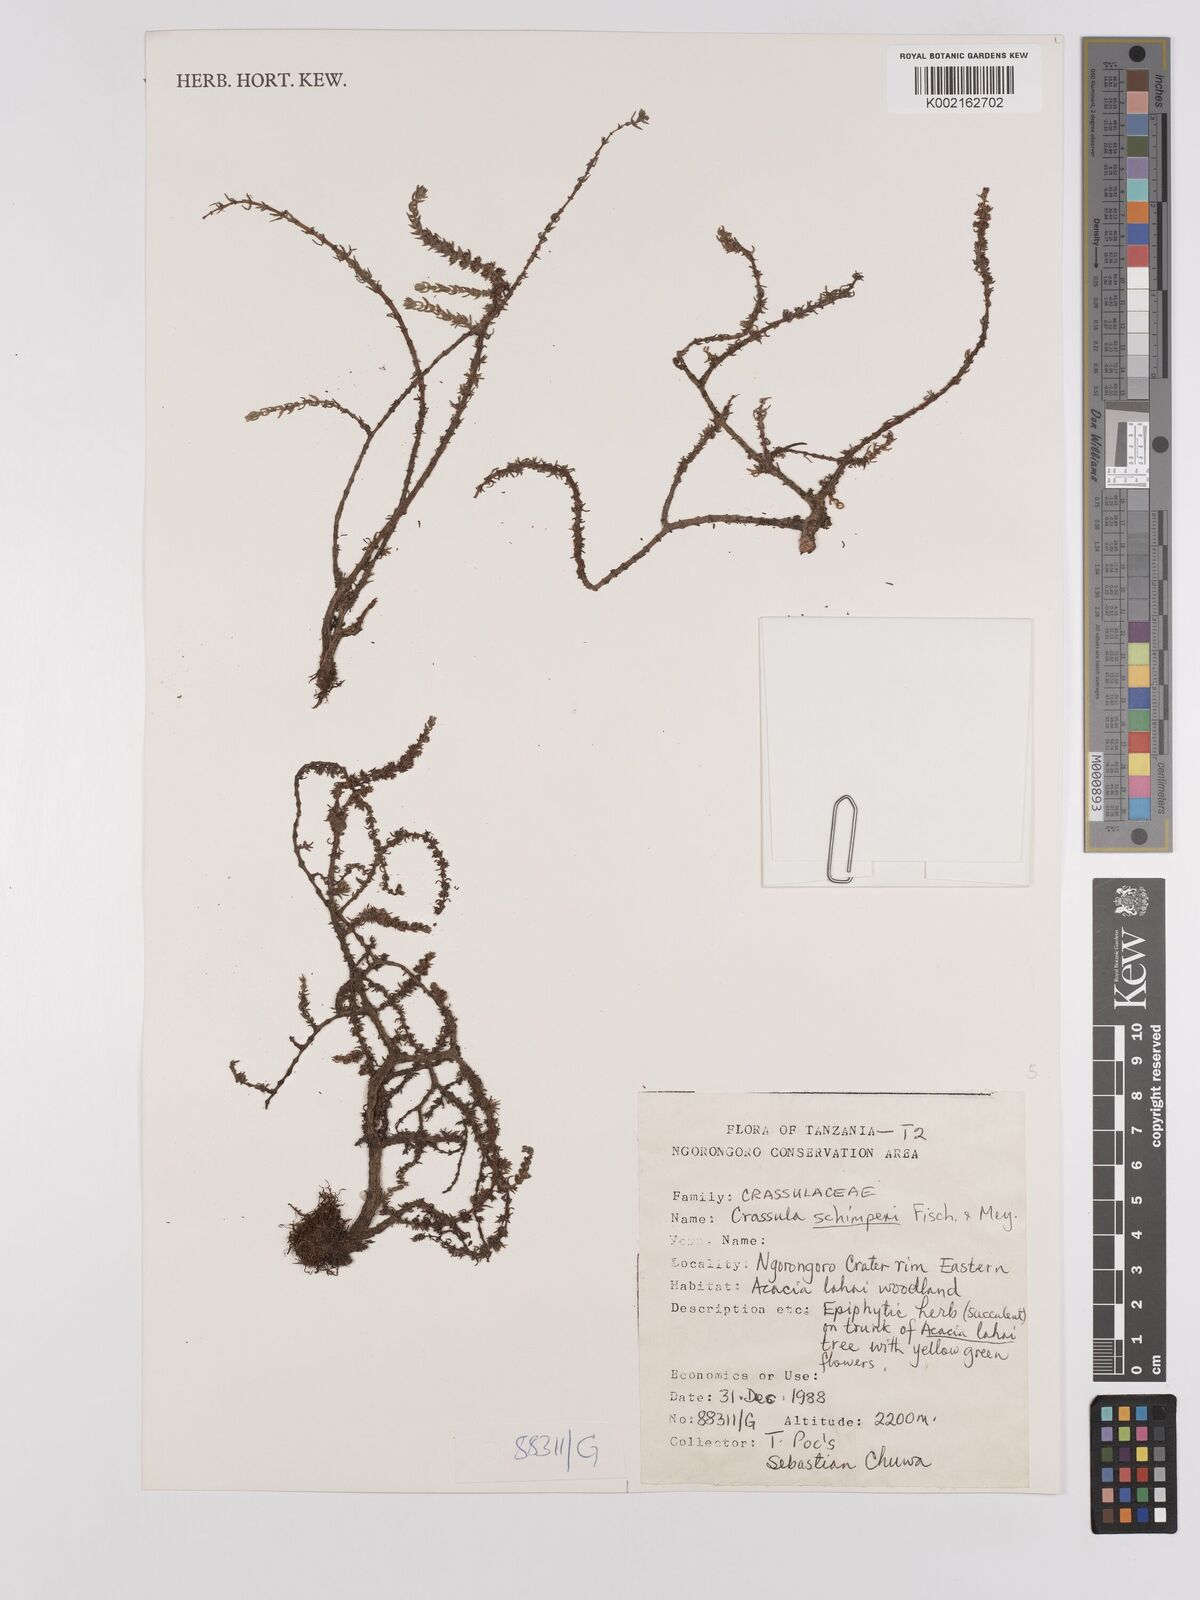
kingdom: Plantae
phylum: Tracheophyta
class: Magnoliopsida
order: Saxifragales
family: Crassulaceae
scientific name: Crassulaceae
